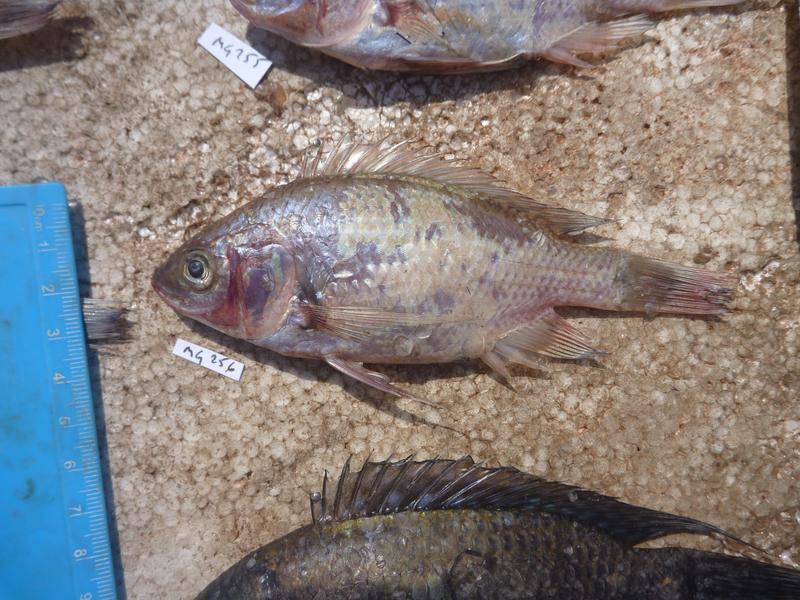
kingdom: Animalia
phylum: Chordata
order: Perciformes
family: Cichlidae
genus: Oreochromis
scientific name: Oreochromis esculentus
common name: Carp
